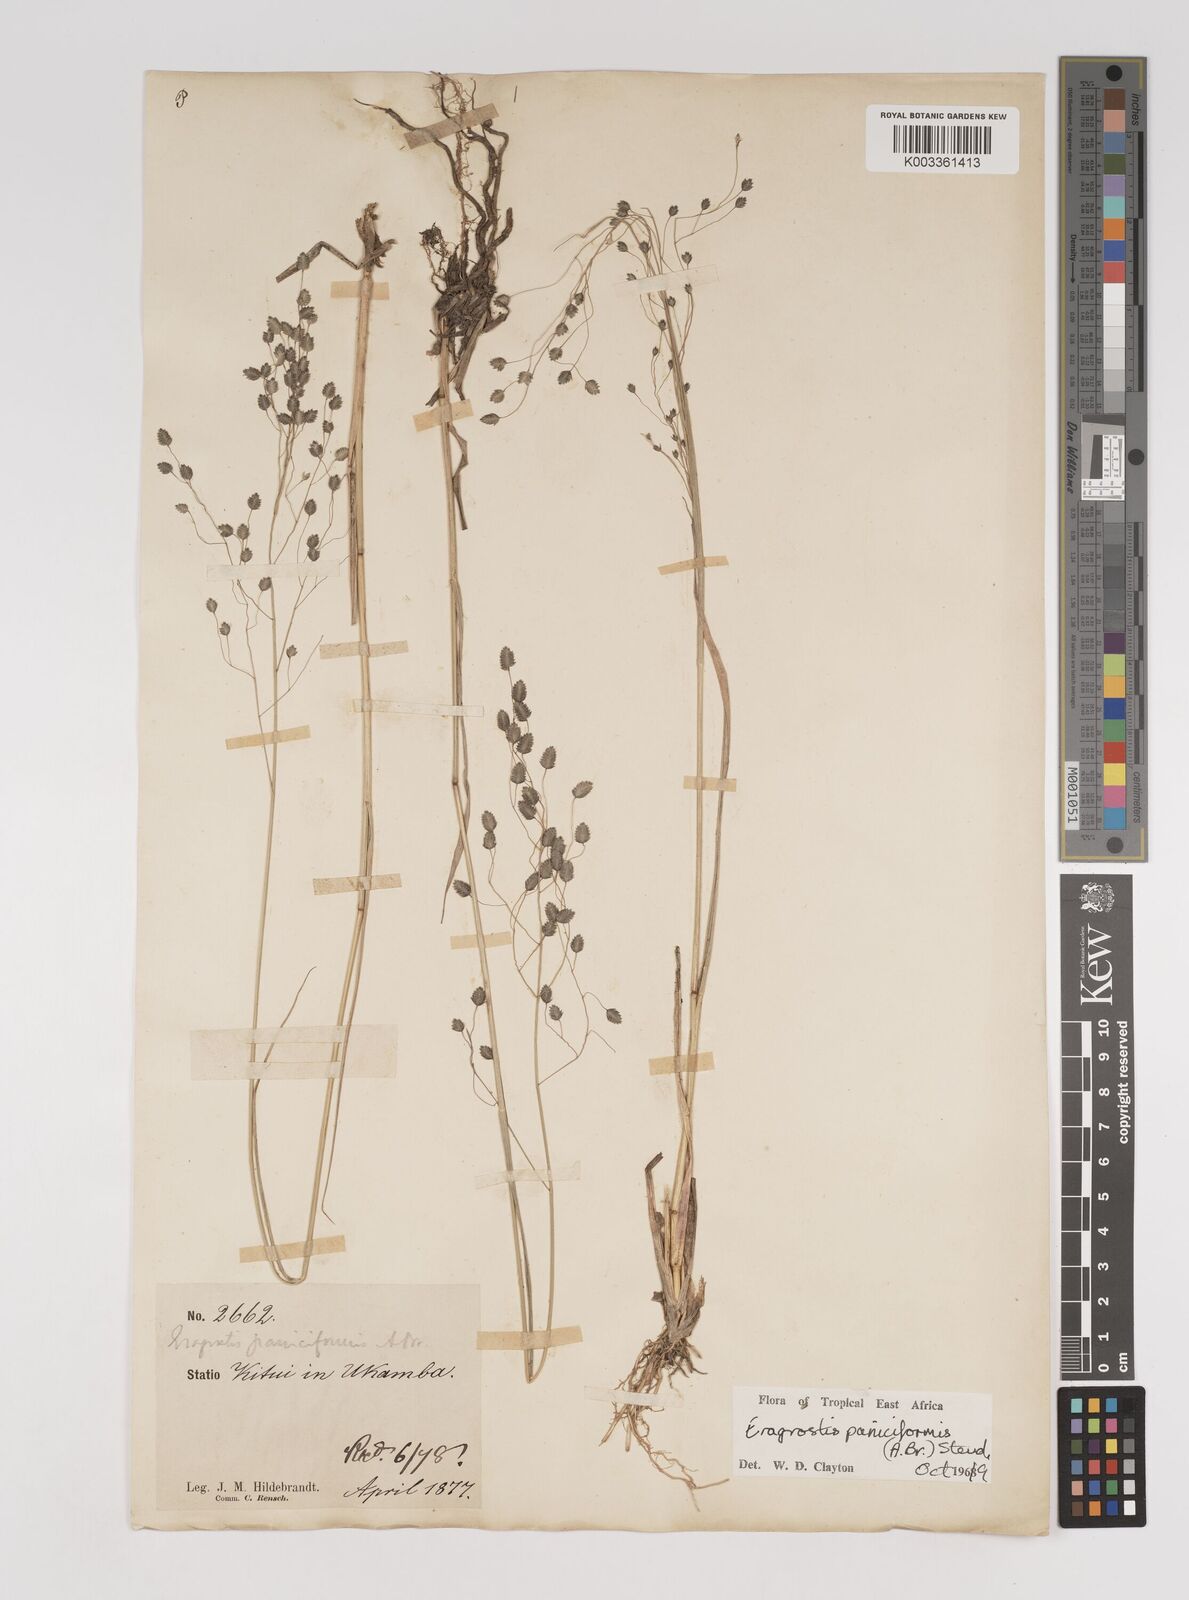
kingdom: Plantae
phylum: Tracheophyta
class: Liliopsida
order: Poales
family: Poaceae
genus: Eragrostis
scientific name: Eragrostis paniciformis
